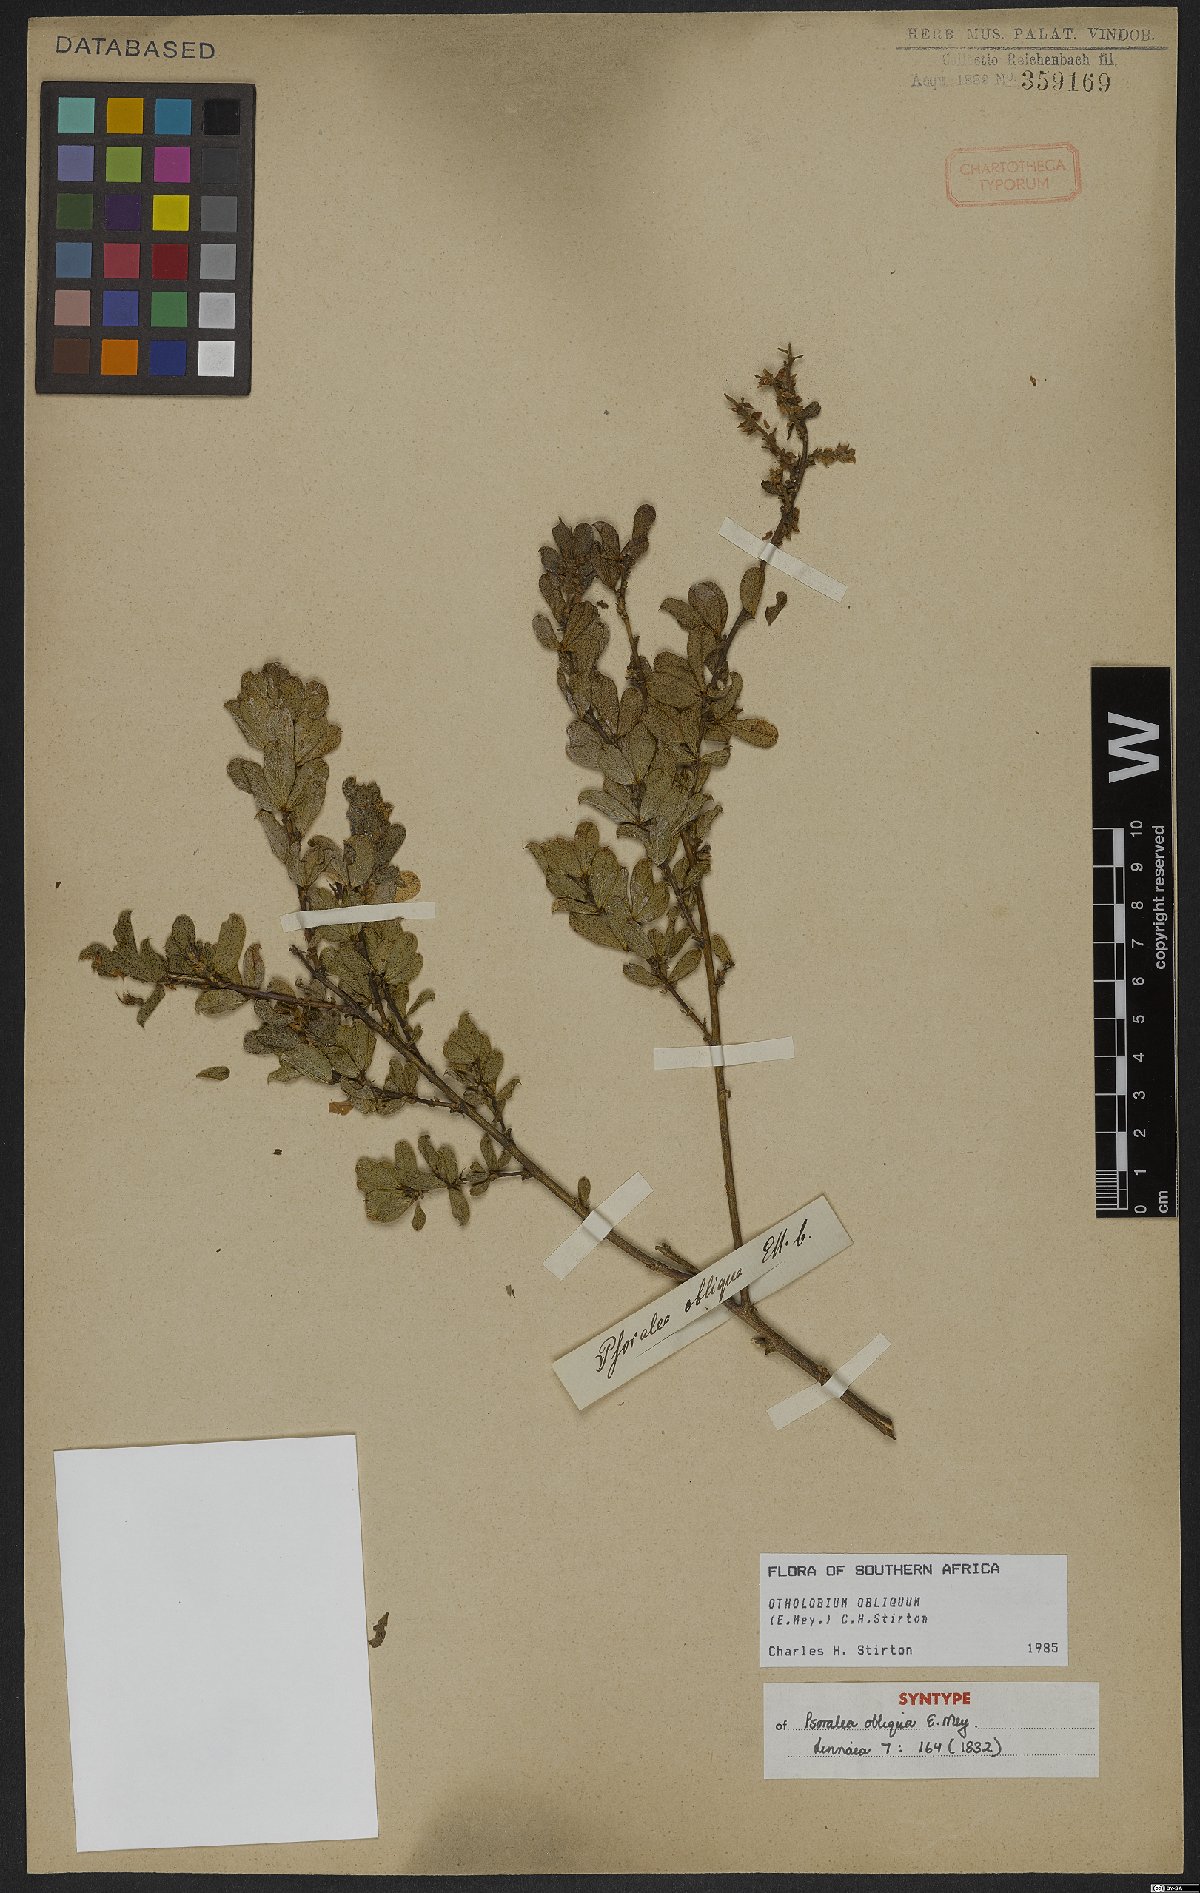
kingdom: Plantae
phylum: Tracheophyta
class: Magnoliopsida
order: Fabales
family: Fabaceae
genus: Psoralea
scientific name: Psoralea obliqua
